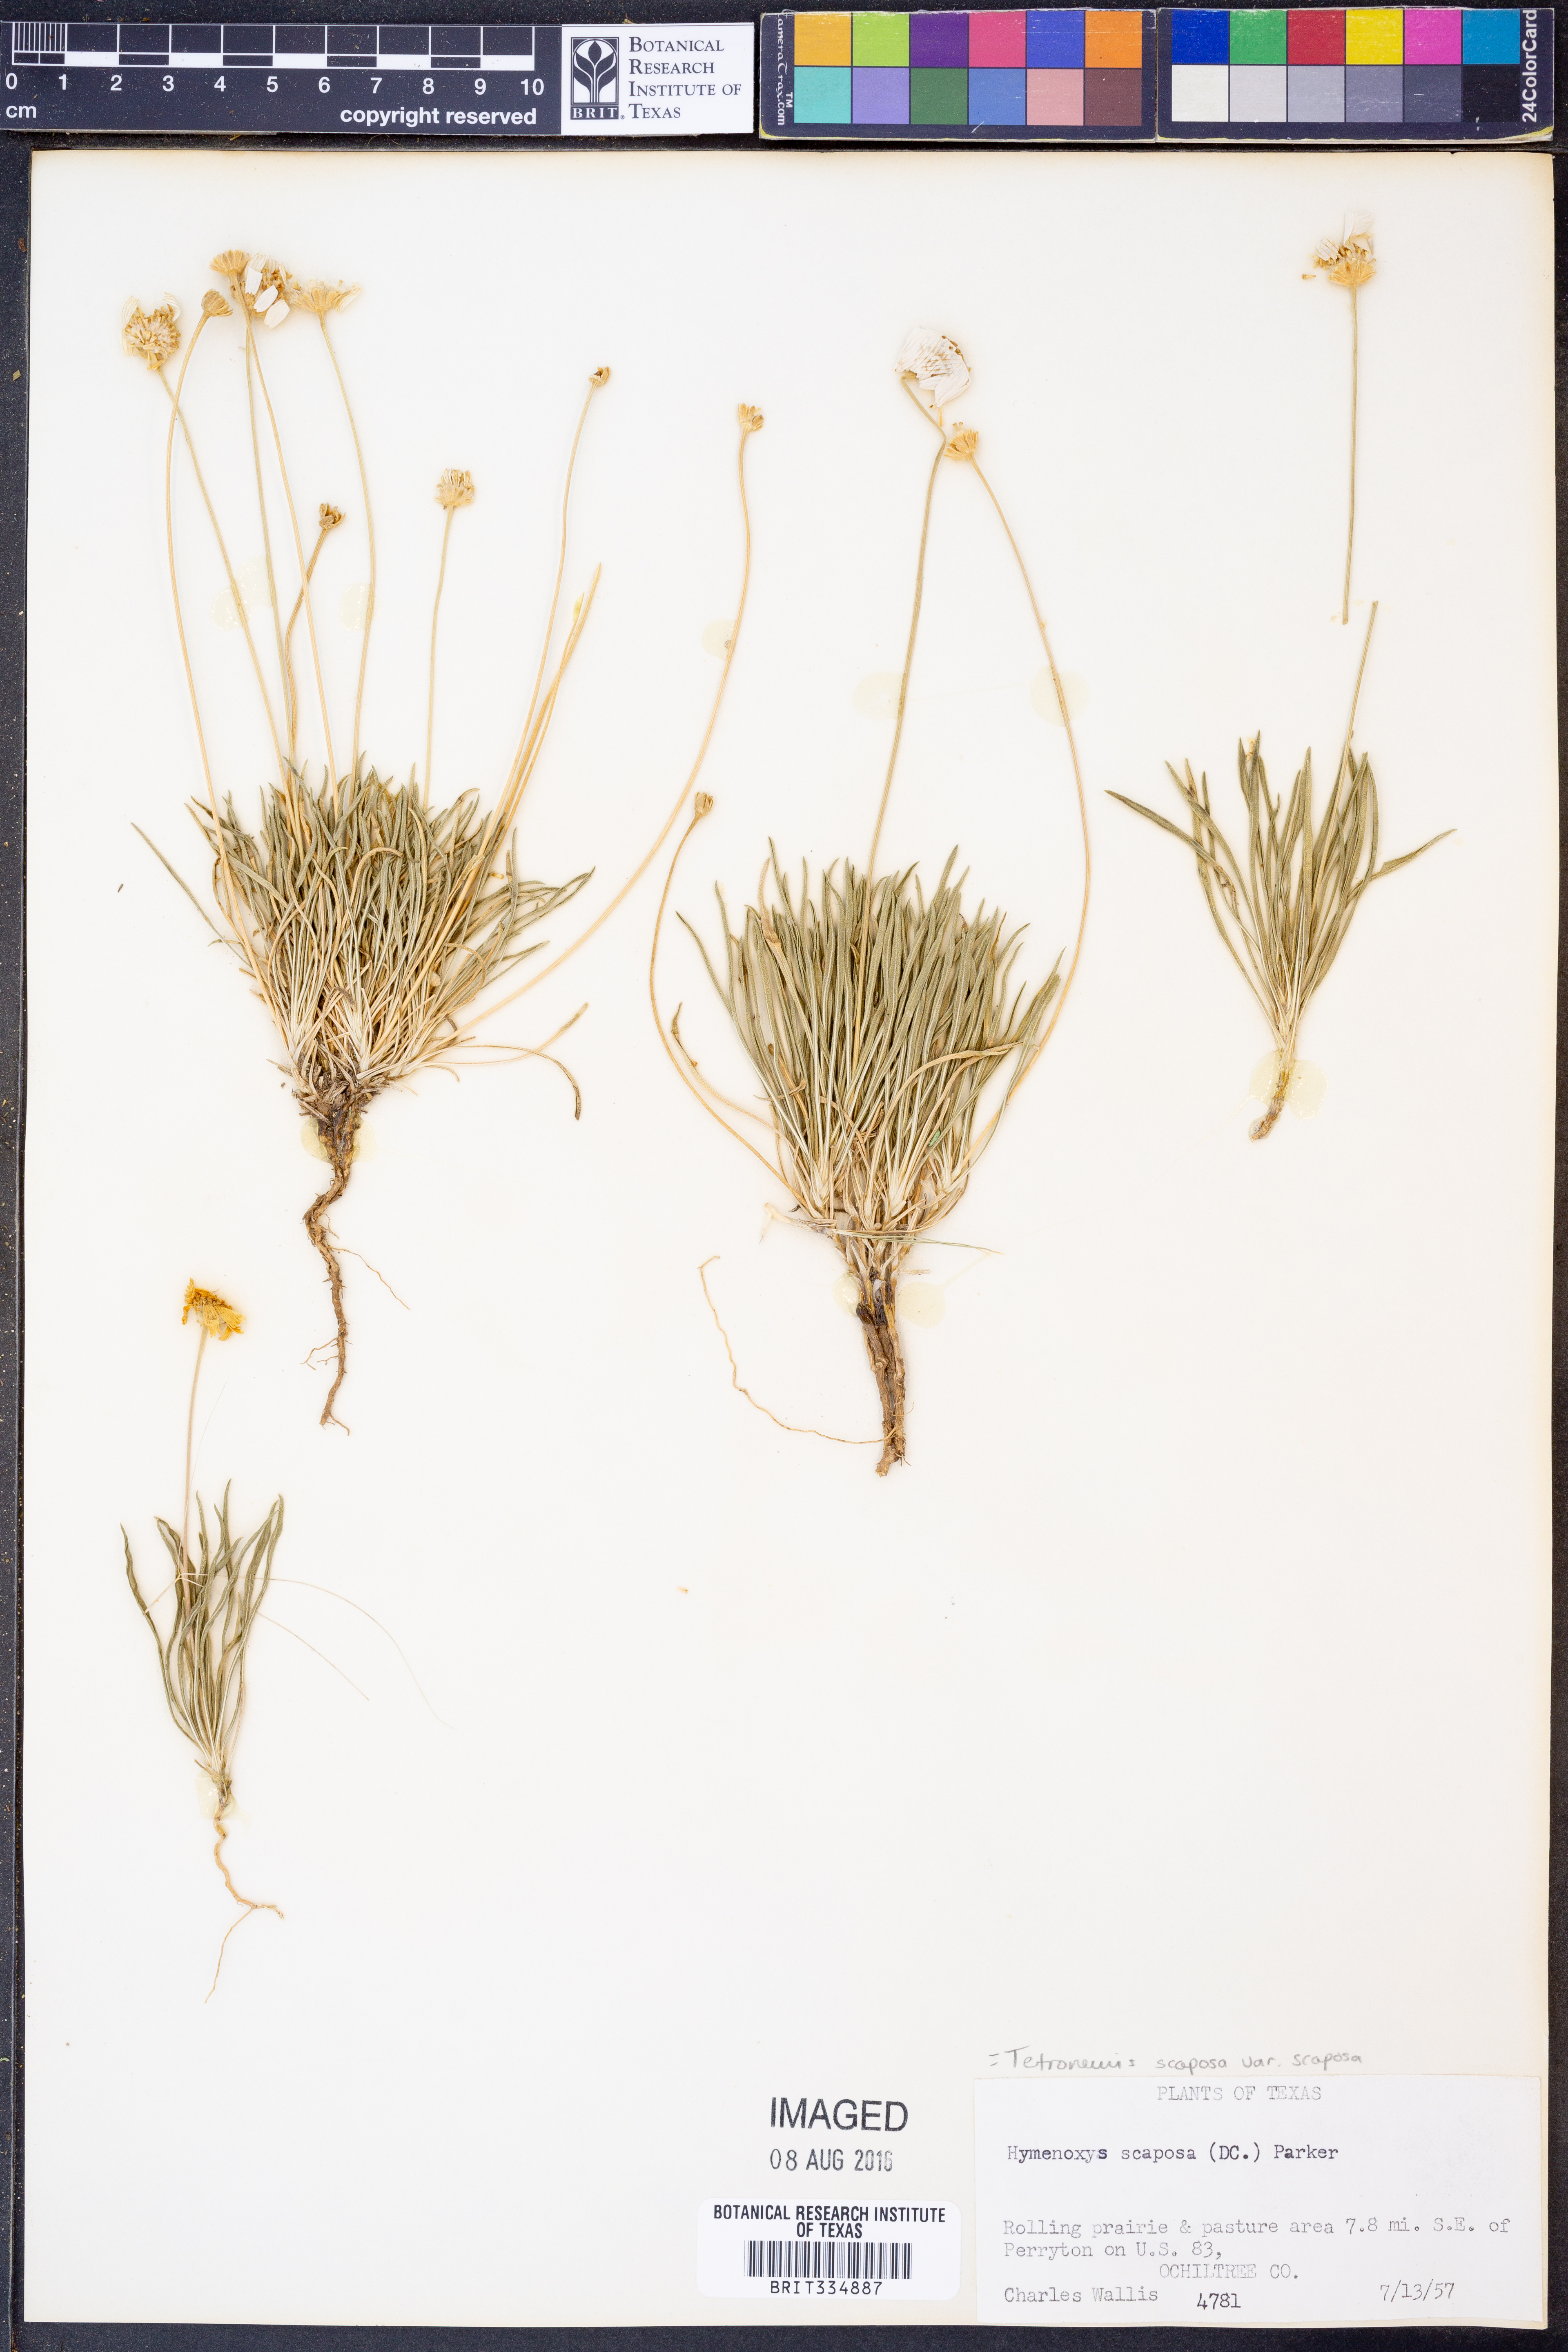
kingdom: Plantae
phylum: Tracheophyta
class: Magnoliopsida
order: Asterales
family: Asteraceae
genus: Tetraneuris
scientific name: Tetraneuris scaposa
